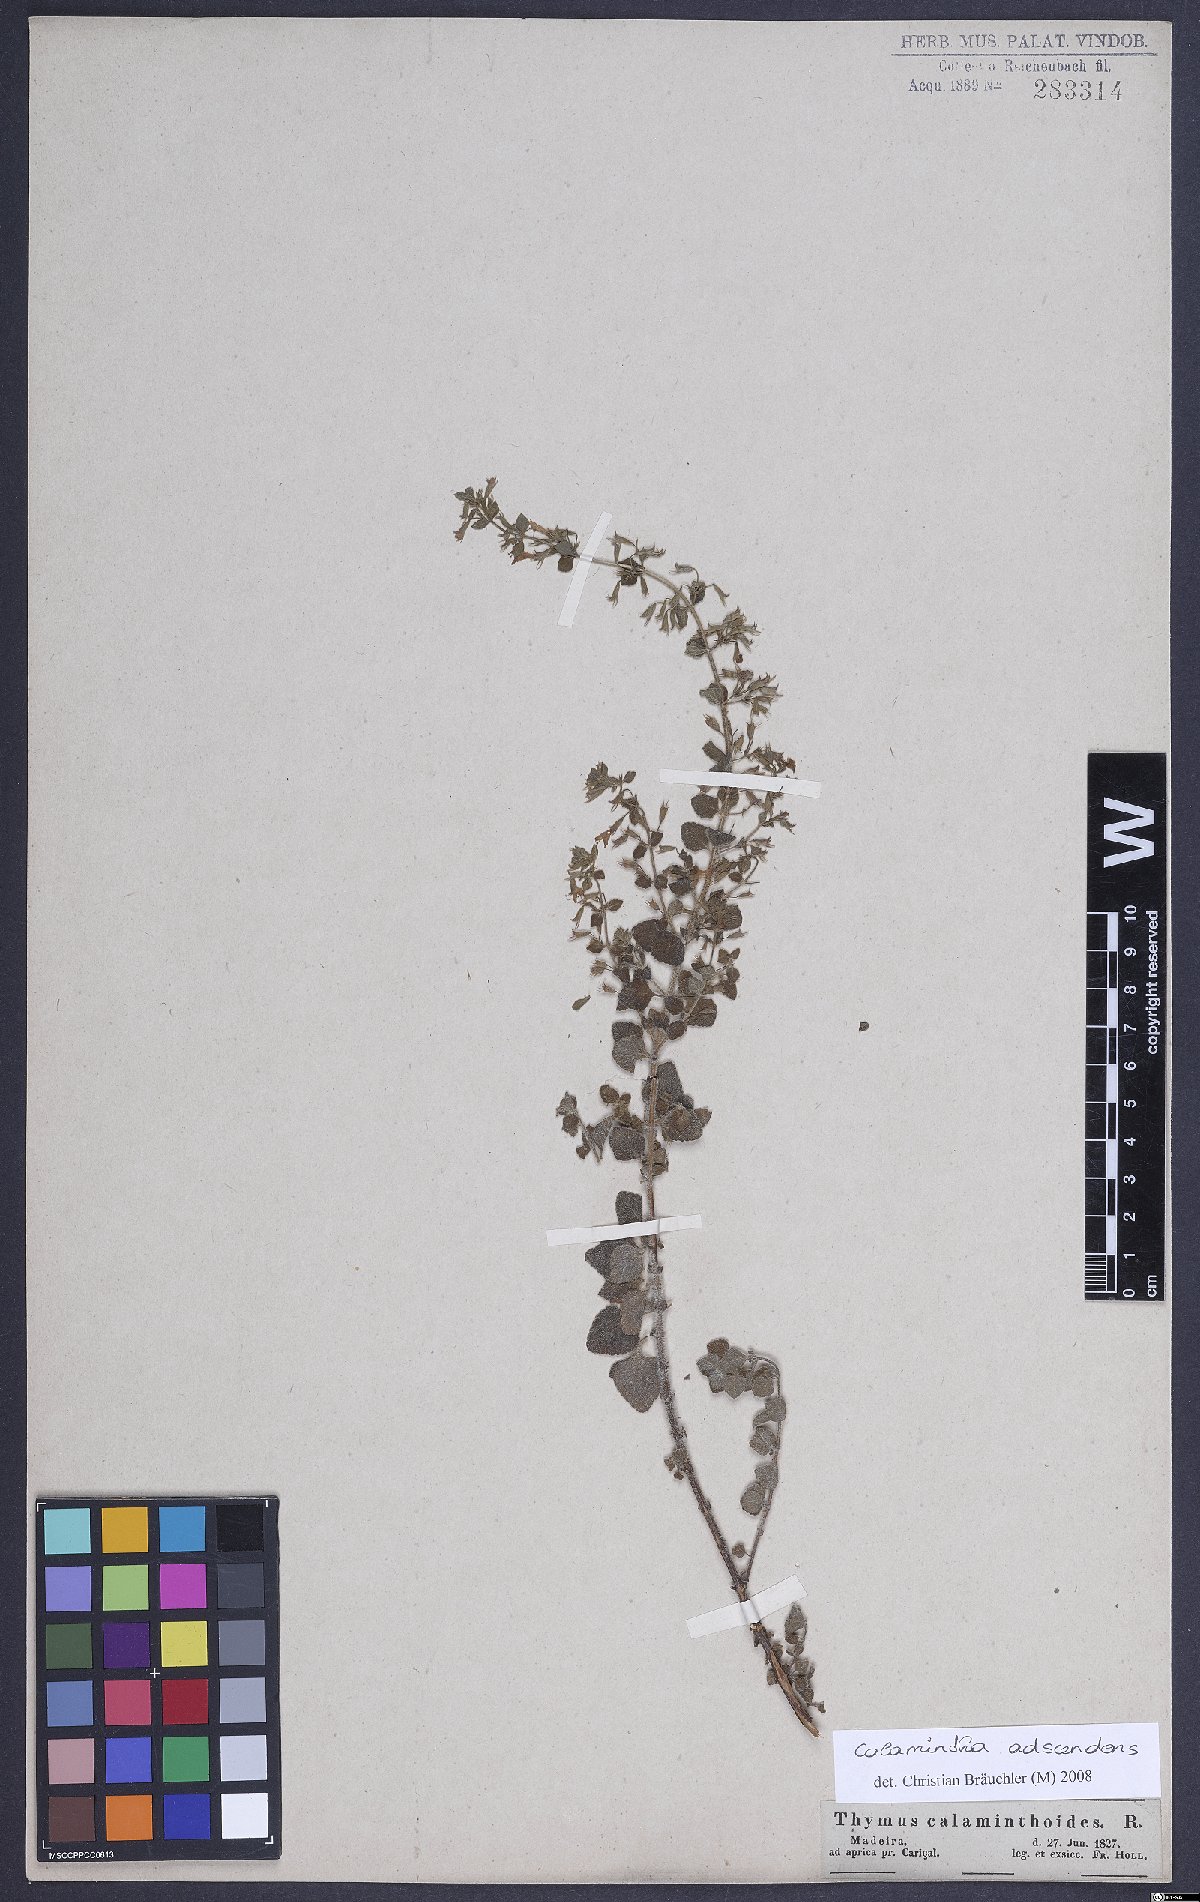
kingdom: Plantae
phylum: Tracheophyta
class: Magnoliopsida
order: Lamiales
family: Lamiaceae
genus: Clinopodium
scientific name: Clinopodium menthifolium
